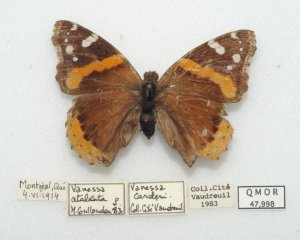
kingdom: Animalia
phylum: Arthropoda
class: Insecta
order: Lepidoptera
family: Nymphalidae
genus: Vanessa
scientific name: Vanessa atalanta
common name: Red Admiral
